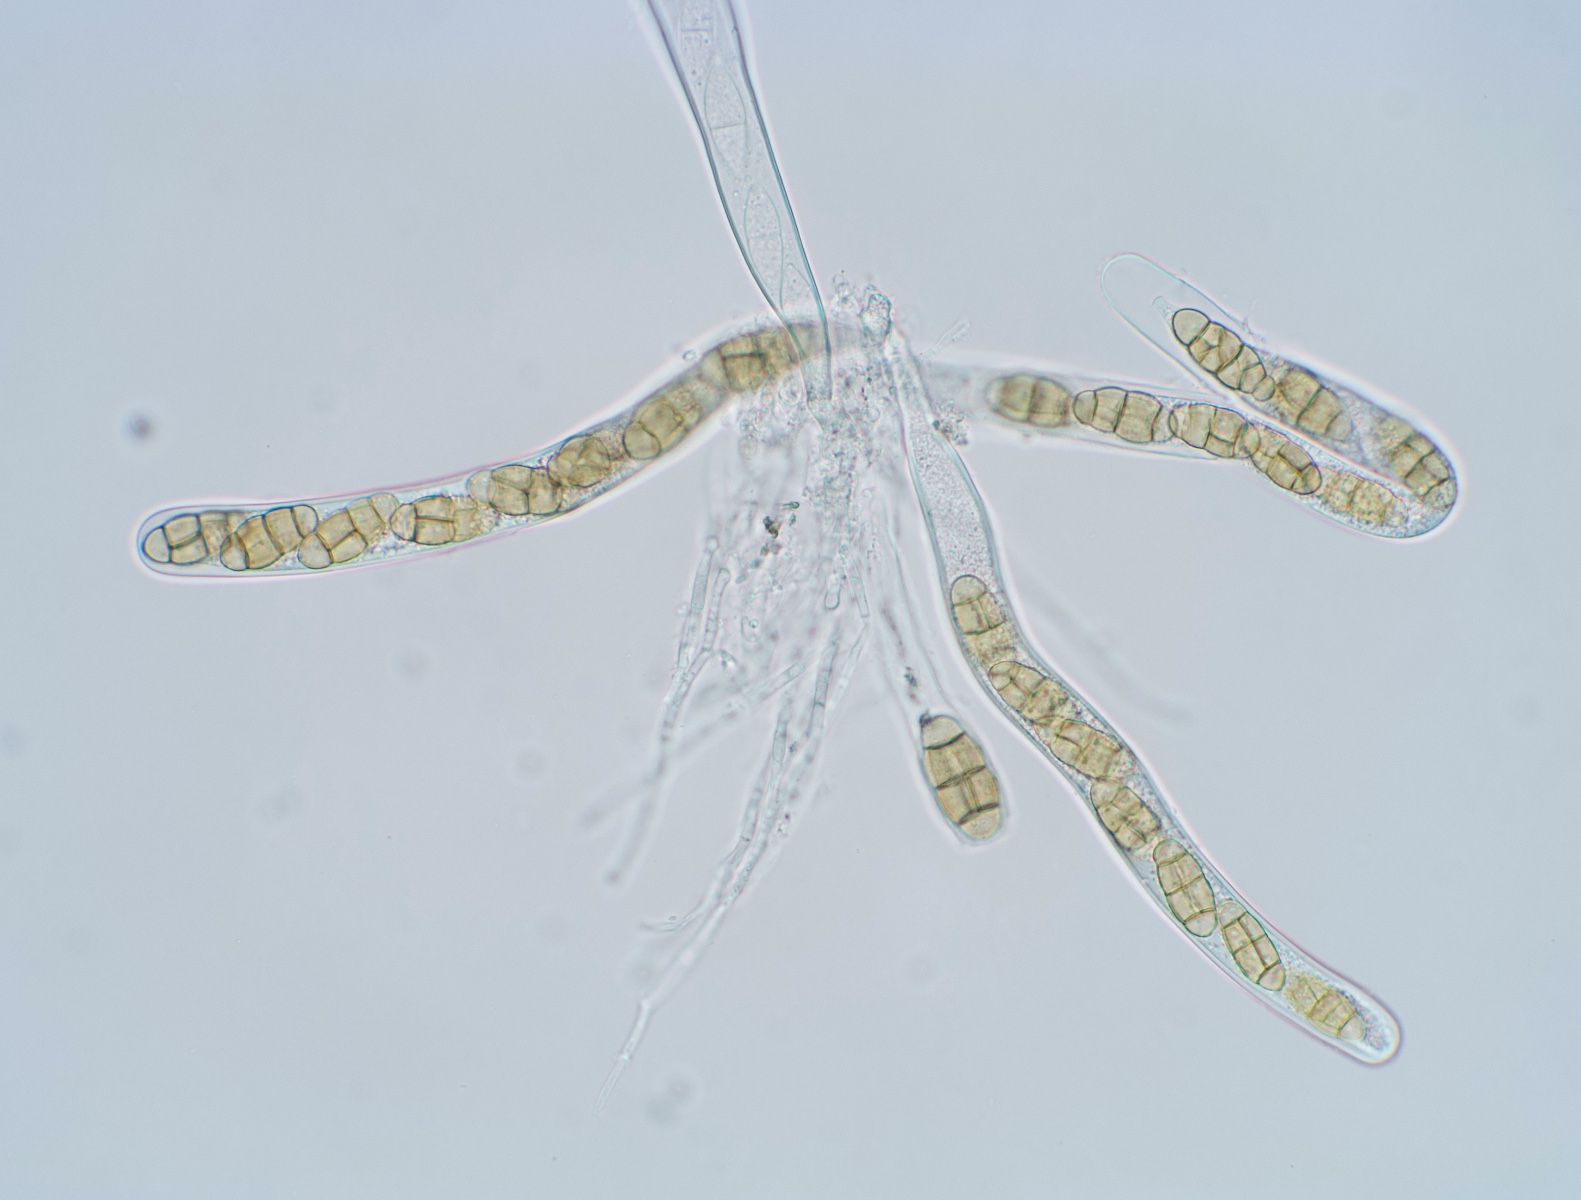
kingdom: Fungi
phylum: Ascomycota
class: Dothideomycetes
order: Pleosporales
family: Didymosphaeriaceae
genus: Staurosphaeria
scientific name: Staurosphaeria lyciicola
